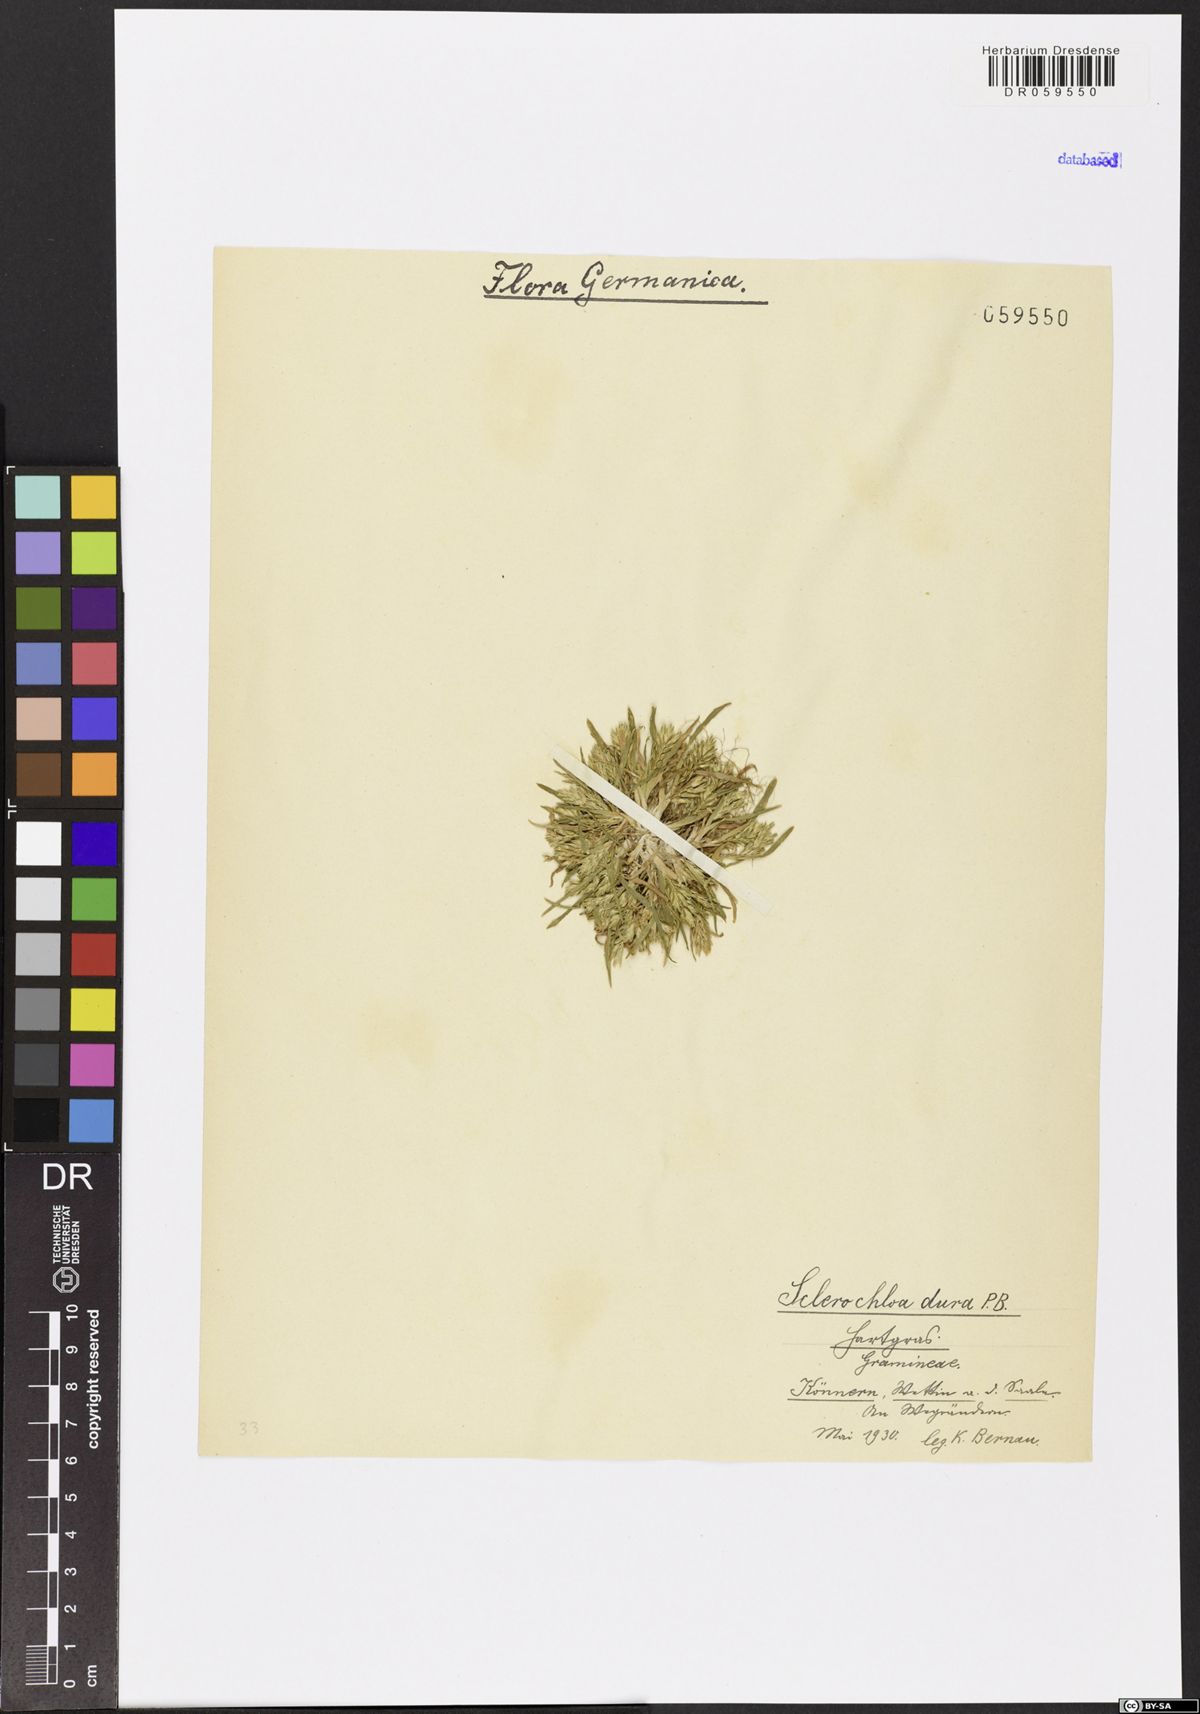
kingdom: Plantae
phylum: Tracheophyta
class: Liliopsida
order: Poales
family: Poaceae
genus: Sclerochloa
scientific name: Sclerochloa dura
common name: Common hardgrass
